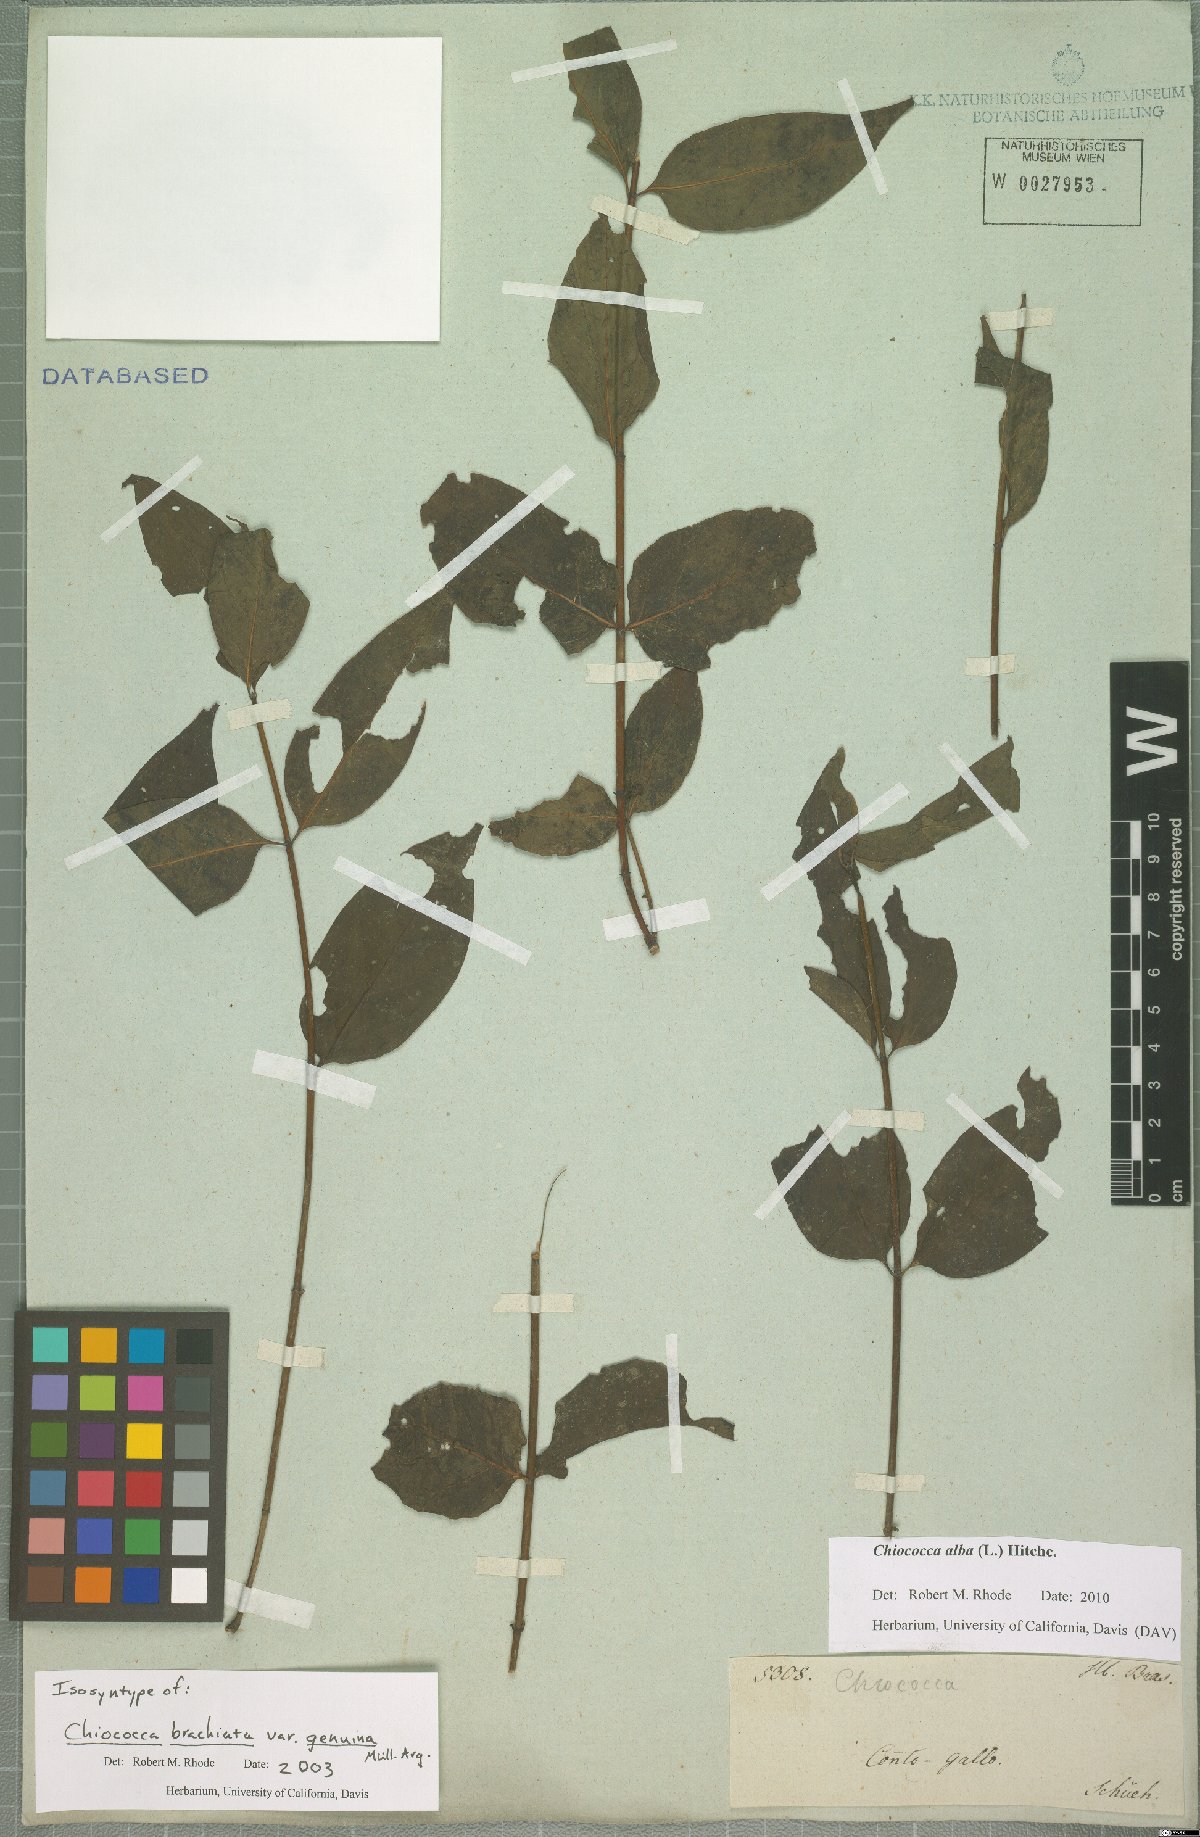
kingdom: Plantae
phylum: Tracheophyta
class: Magnoliopsida
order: Gentianales
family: Rubiaceae
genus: Chiococca
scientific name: Chiococca alba
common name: Snowberry
